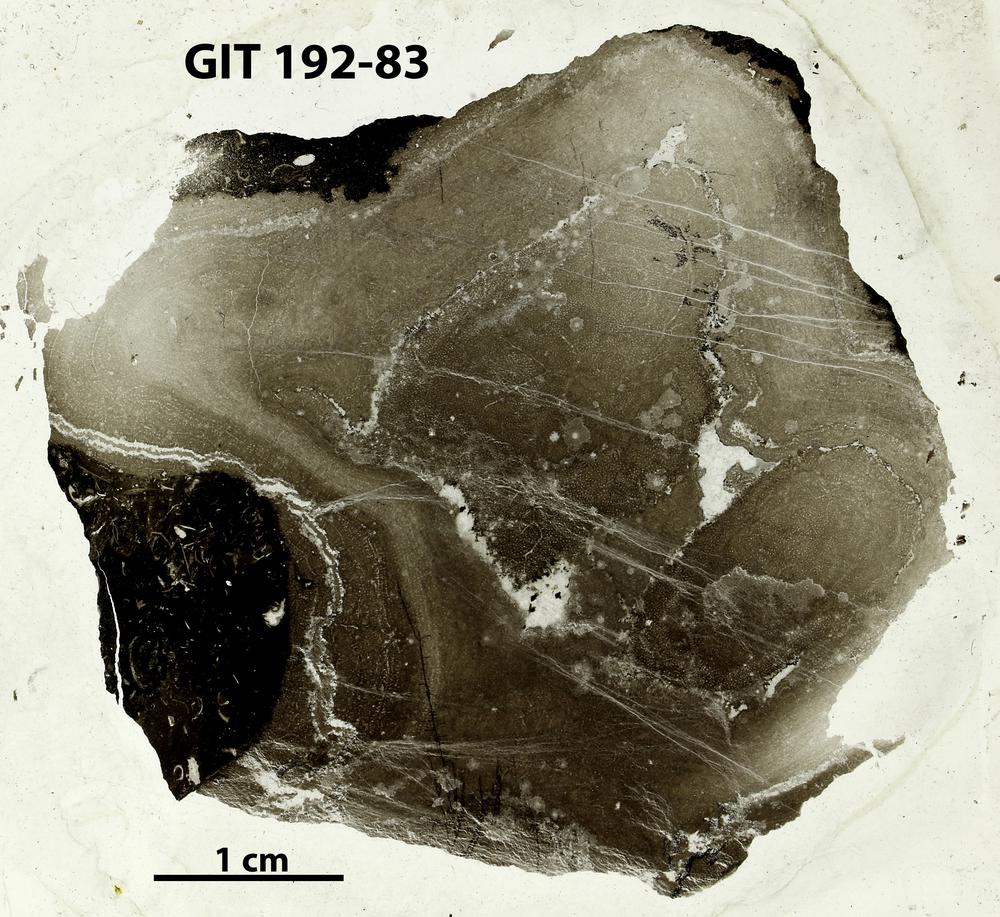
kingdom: Animalia
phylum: Porifera
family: Densastromatidae
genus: Araneosustroma
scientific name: Araneosustroma
